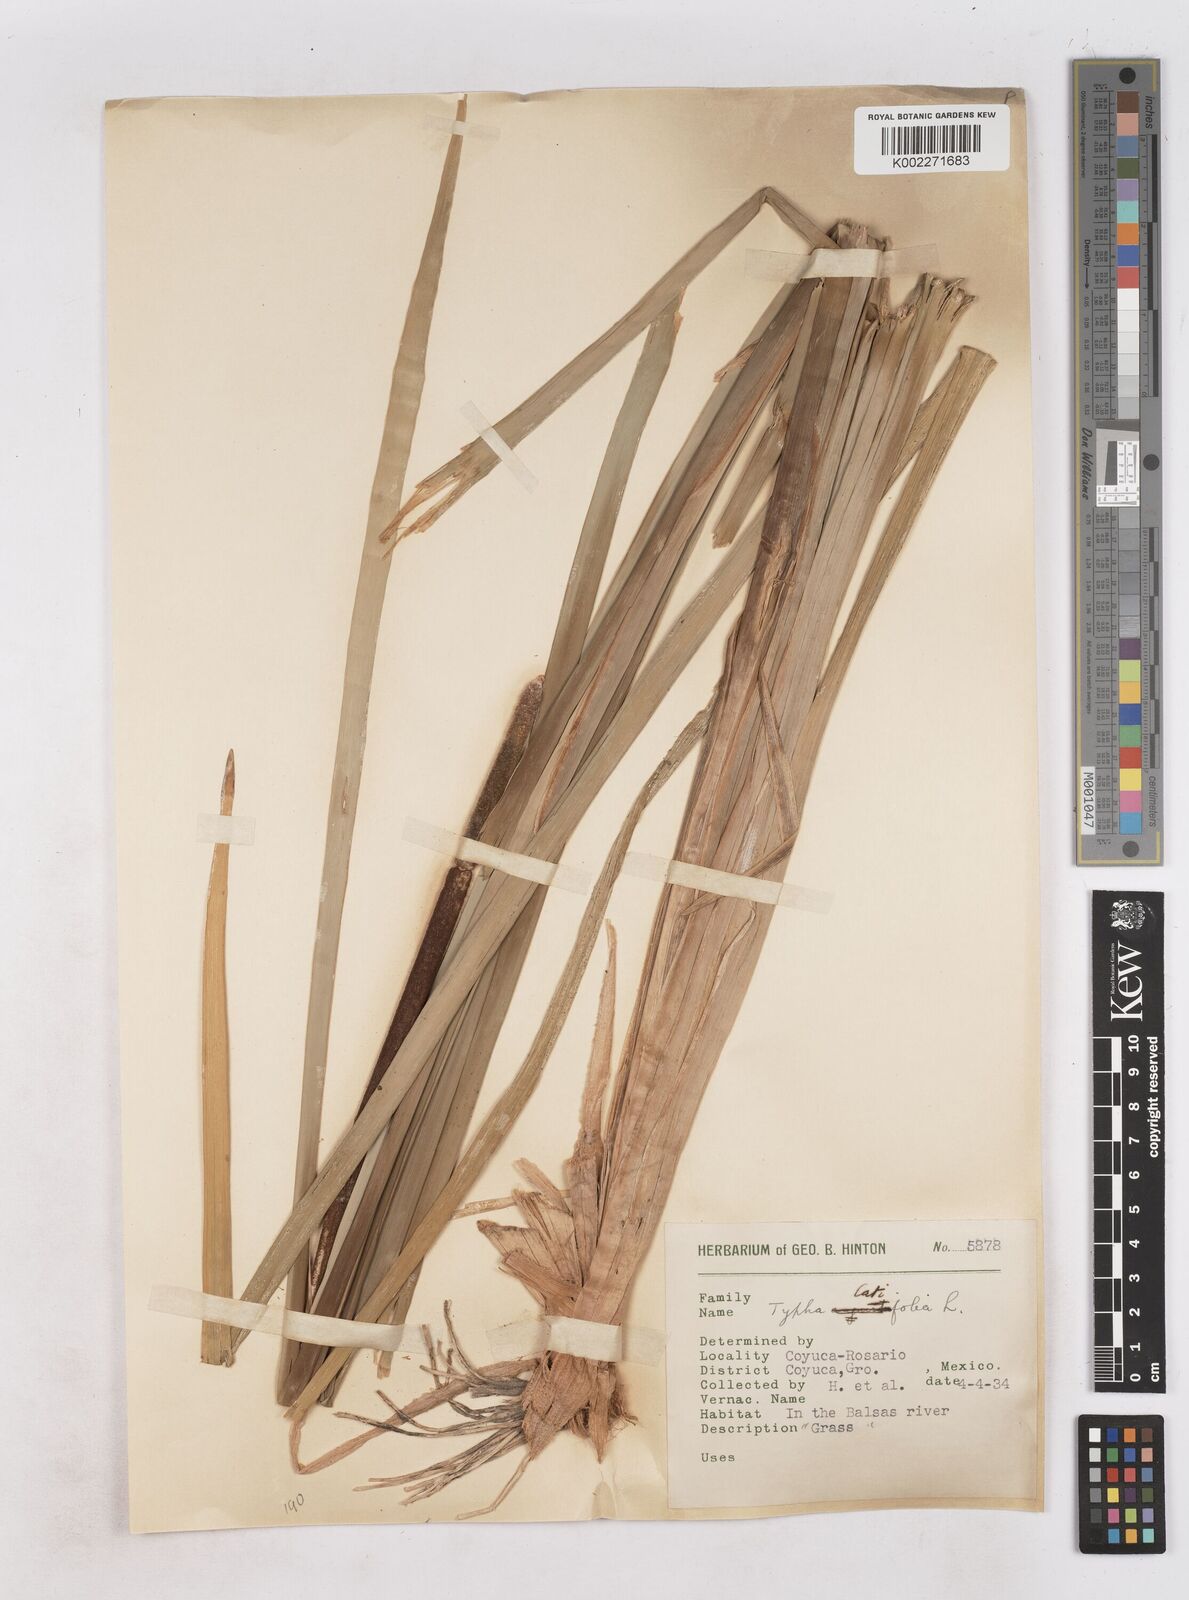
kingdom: Plantae
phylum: Tracheophyta
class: Liliopsida
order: Poales
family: Typhaceae
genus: Typha
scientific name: Typha latifolia
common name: Broadleaf cattail
